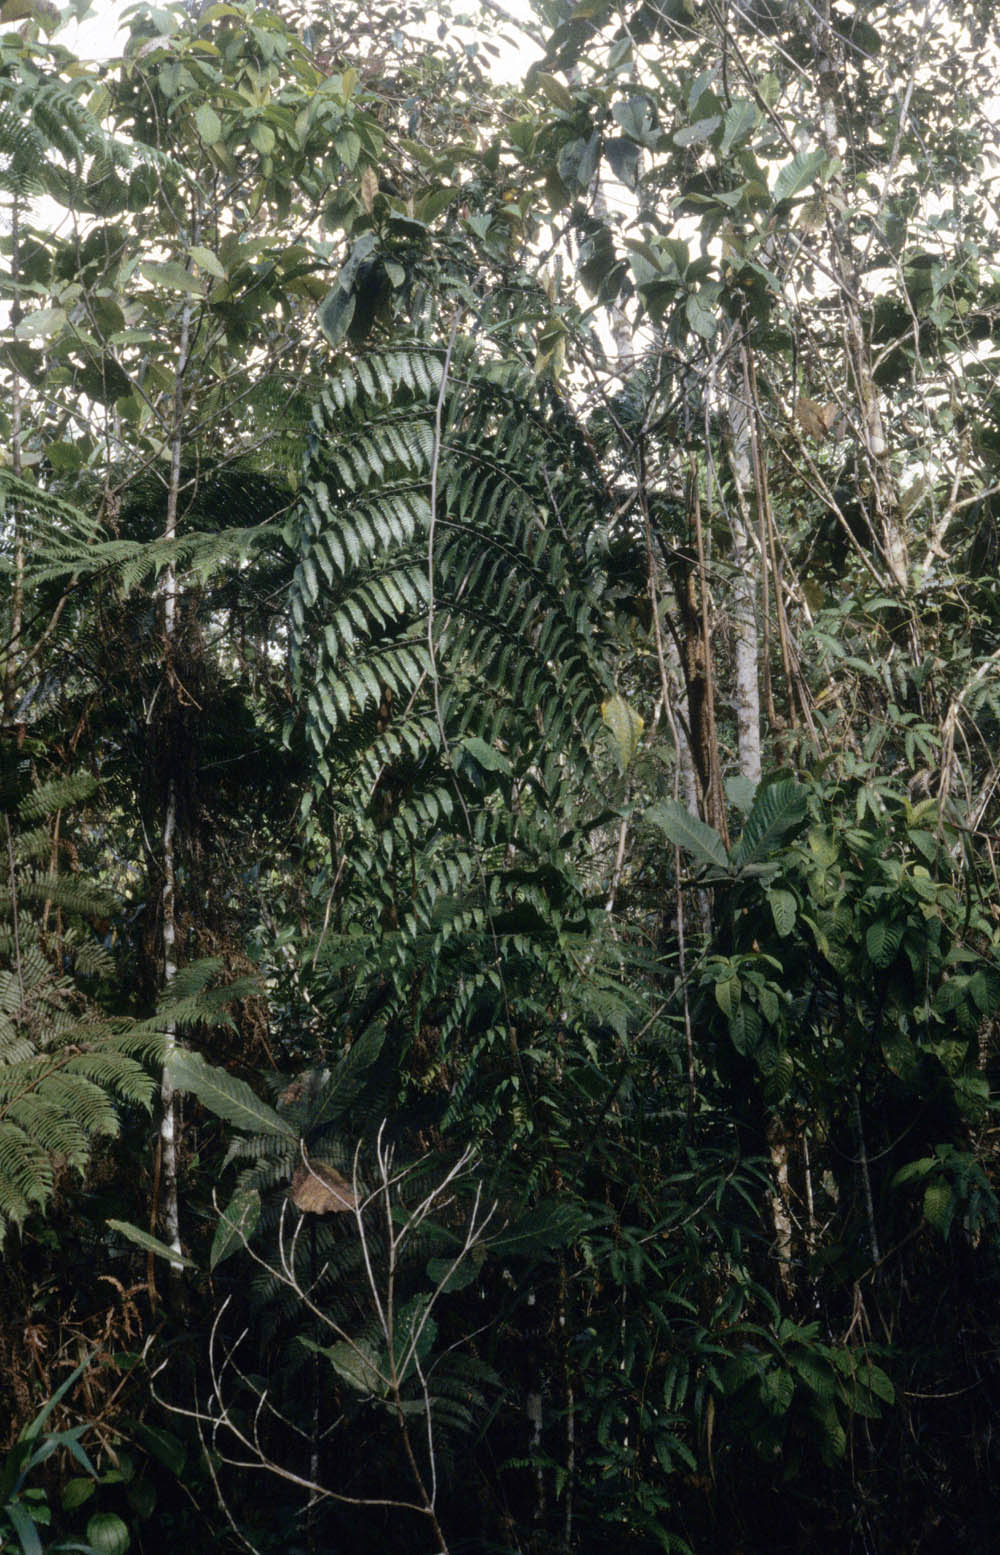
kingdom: Plantae
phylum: Tracheophyta
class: Polypodiopsida
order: Cyatheales
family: Cyatheaceae
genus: Cyathea
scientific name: Cyathea latevagans
